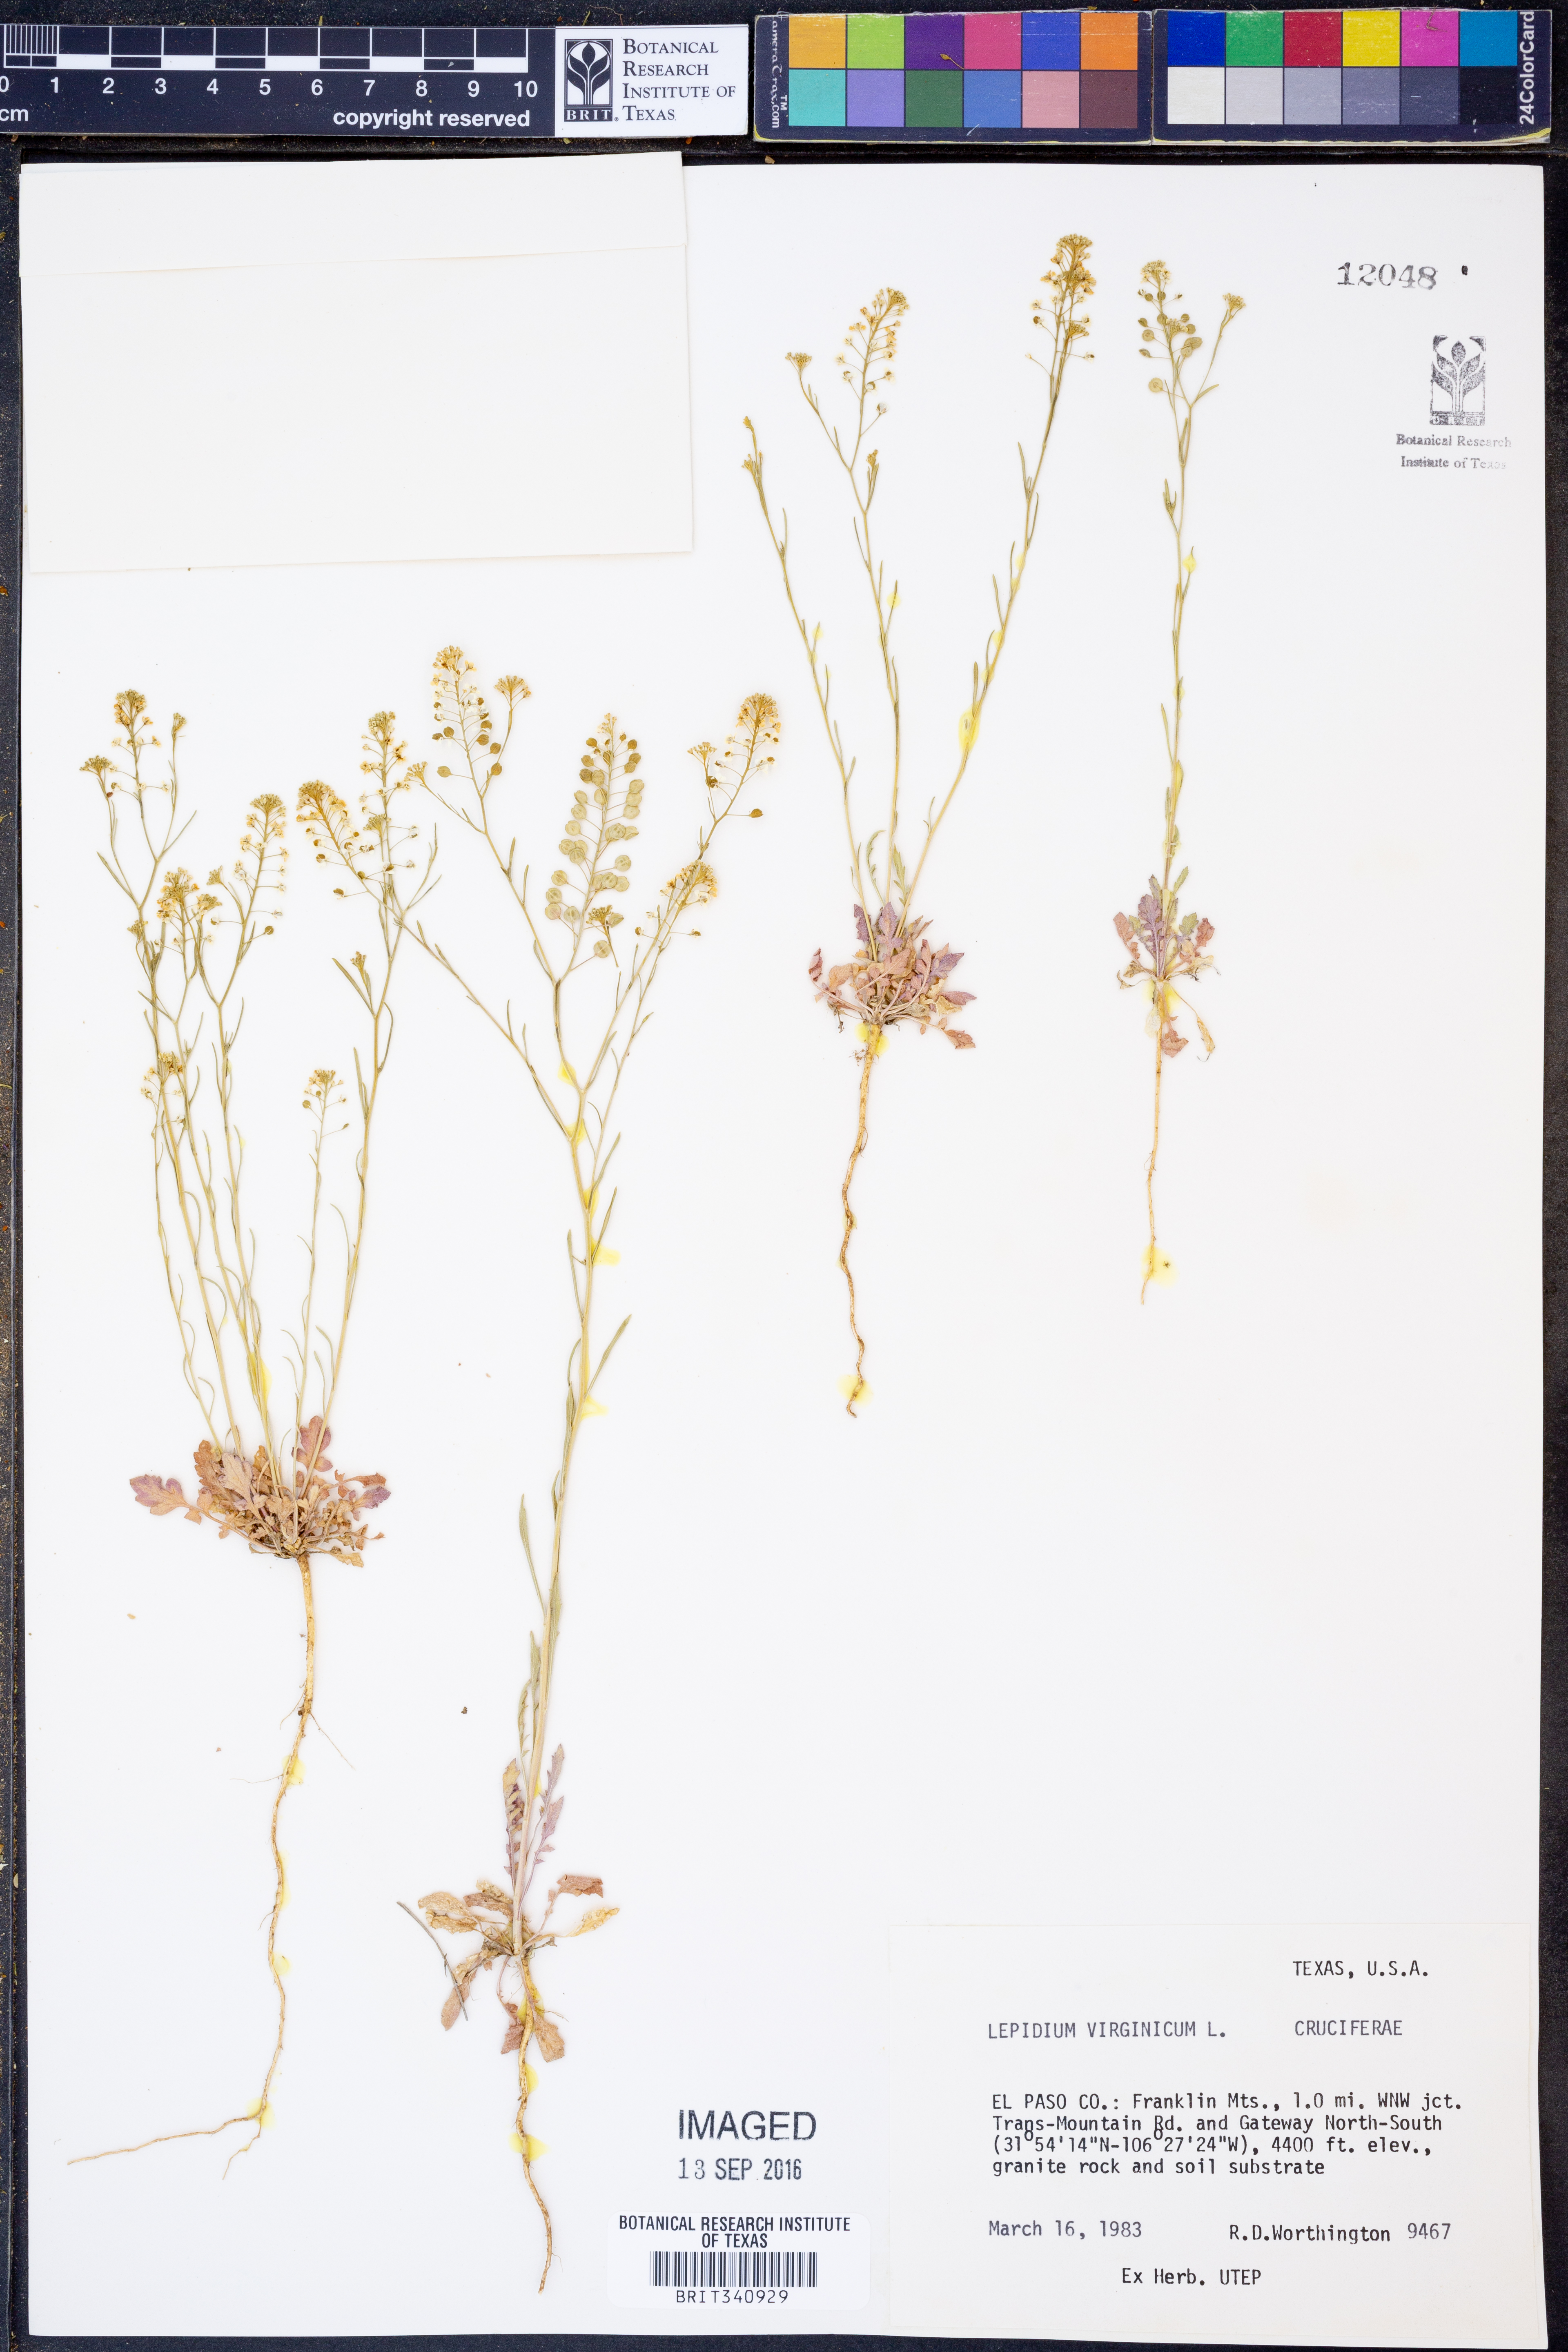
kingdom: Plantae
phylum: Tracheophyta
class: Magnoliopsida
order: Brassicales
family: Brassicaceae
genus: Lepidium
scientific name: Lepidium virginicum
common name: Least pepperwort
